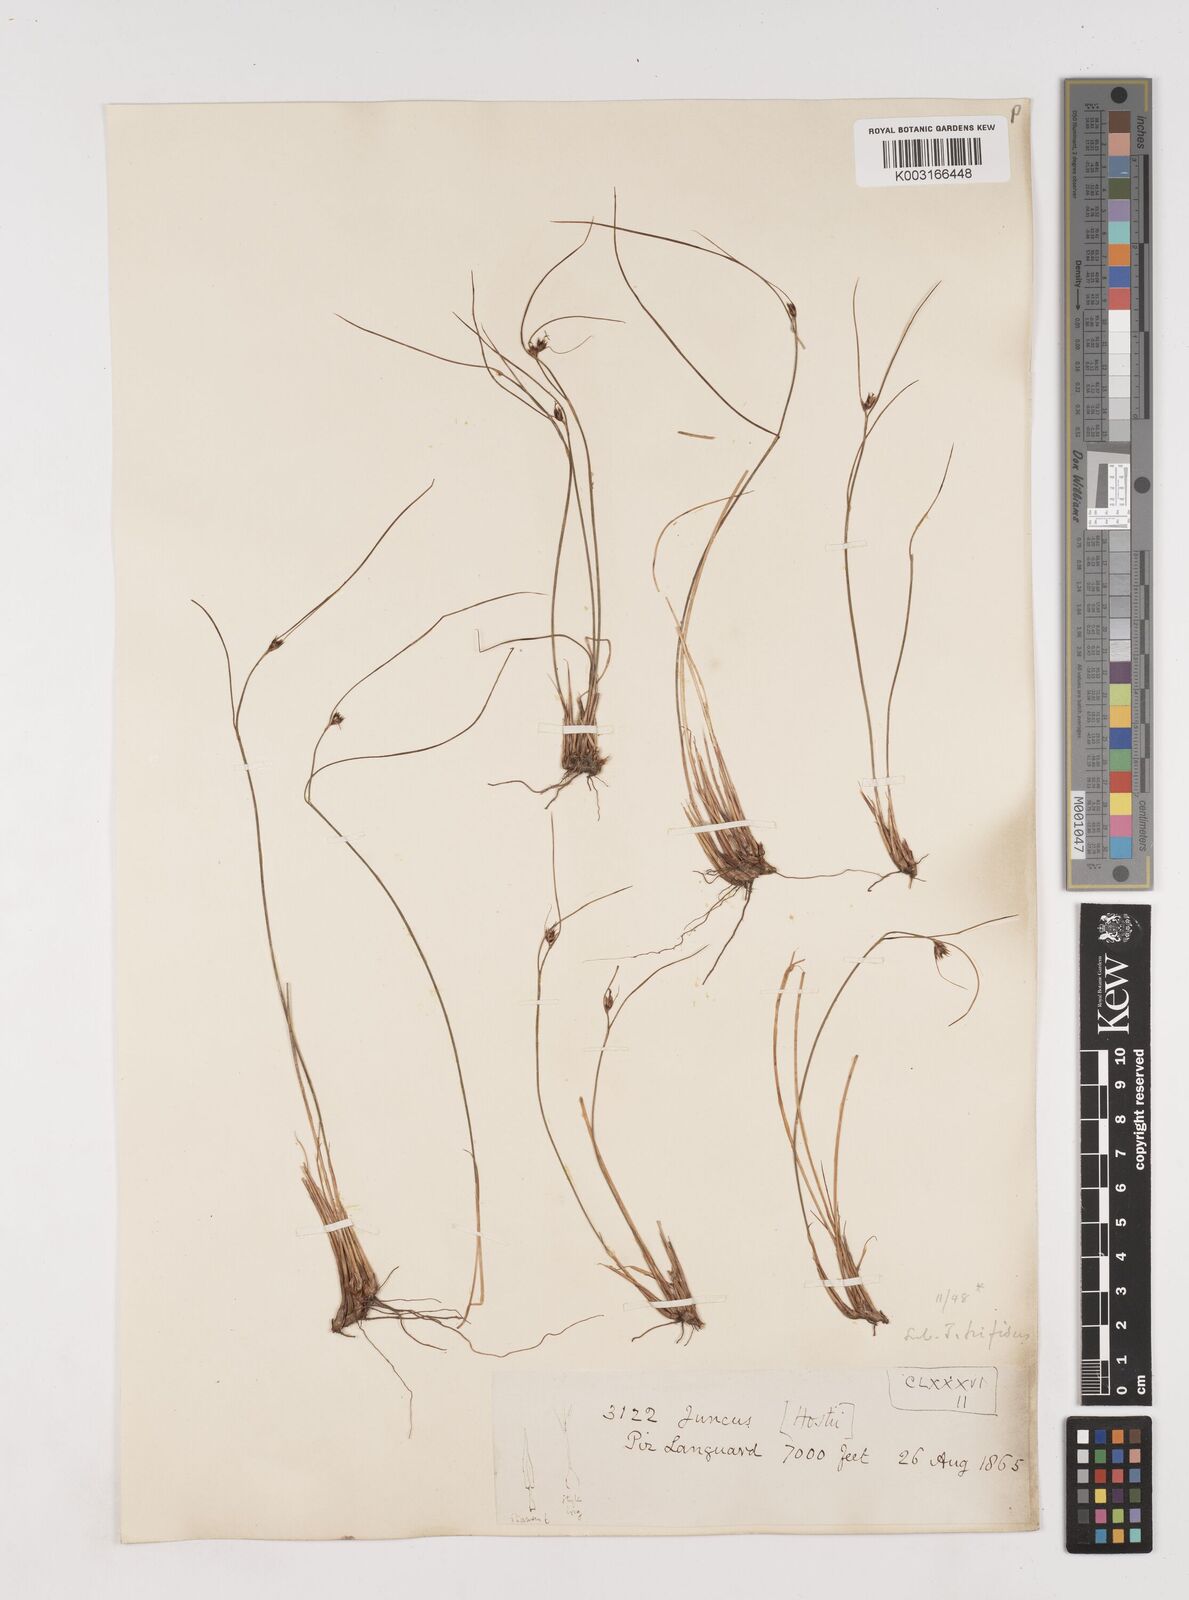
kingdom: Plantae
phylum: Tracheophyta
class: Liliopsida
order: Poales
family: Juncaceae
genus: Oreojuncus
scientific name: Oreojuncus trifidus
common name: Highland rush
